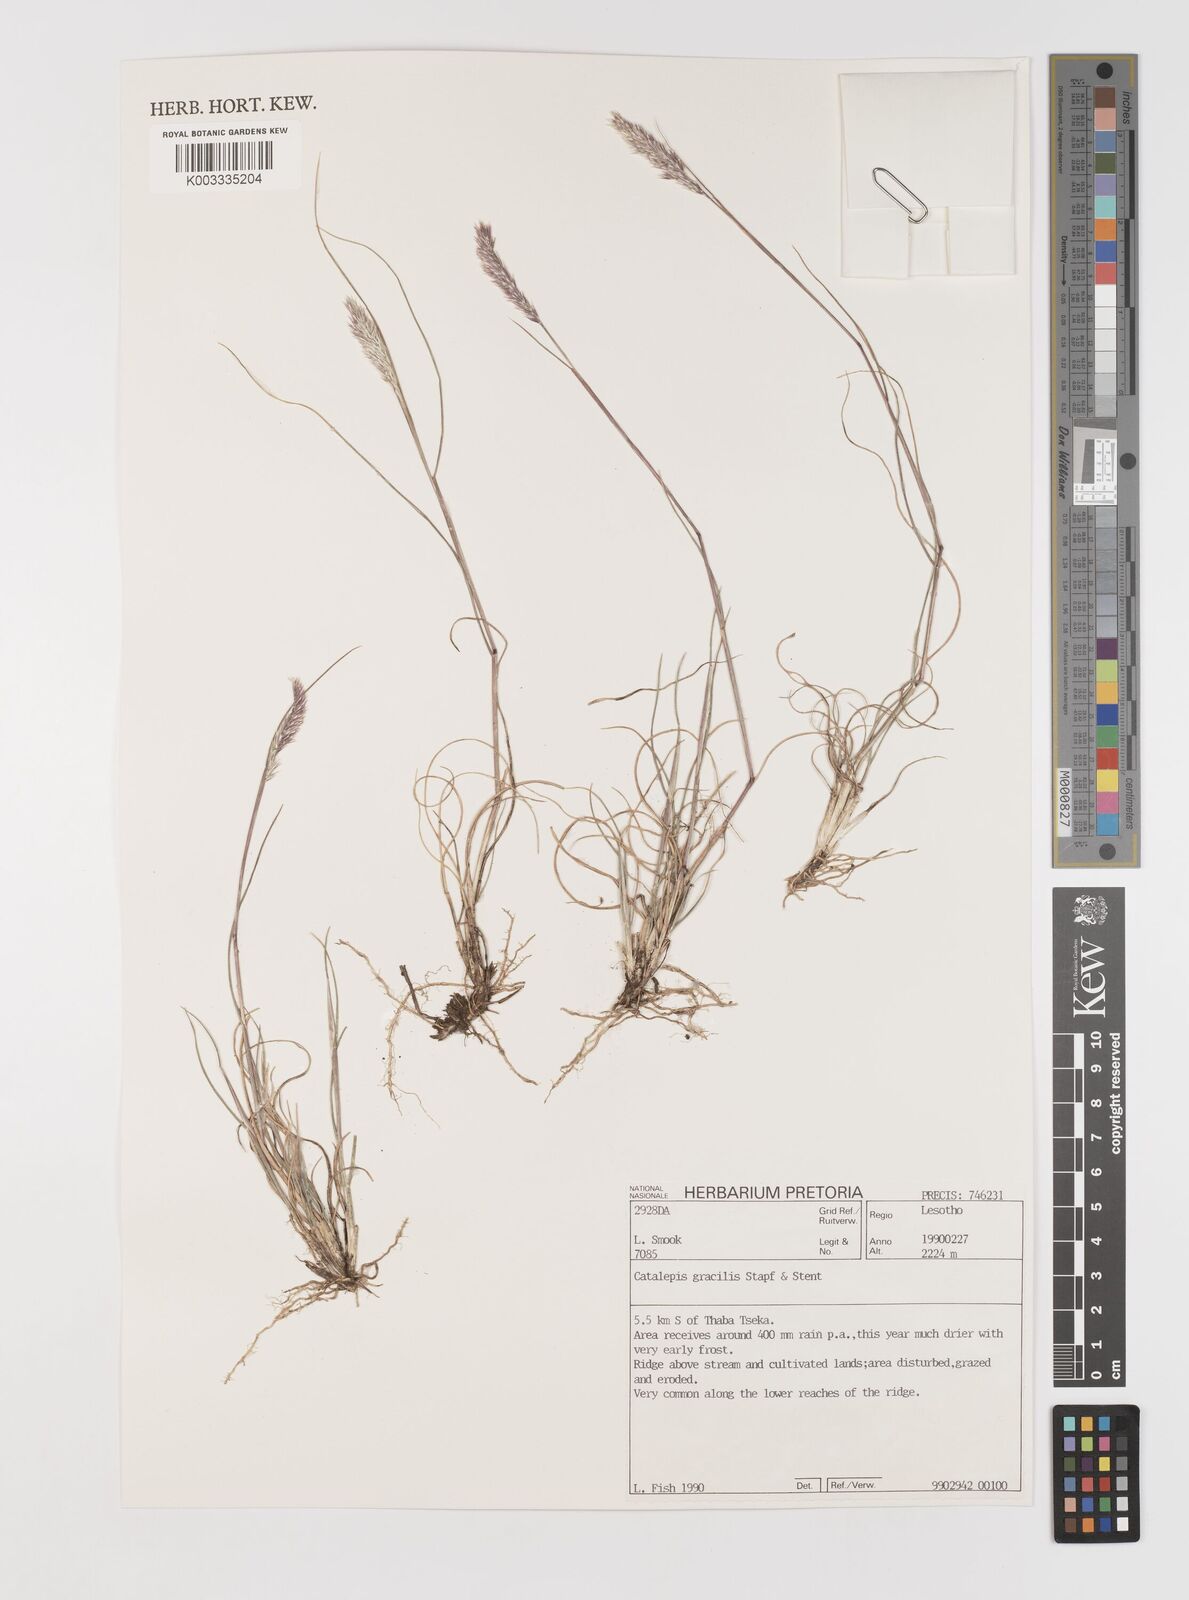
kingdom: Plantae
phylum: Tracheophyta
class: Liliopsida
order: Poales
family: Poaceae
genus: Catalepis
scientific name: Catalepis gracilis
